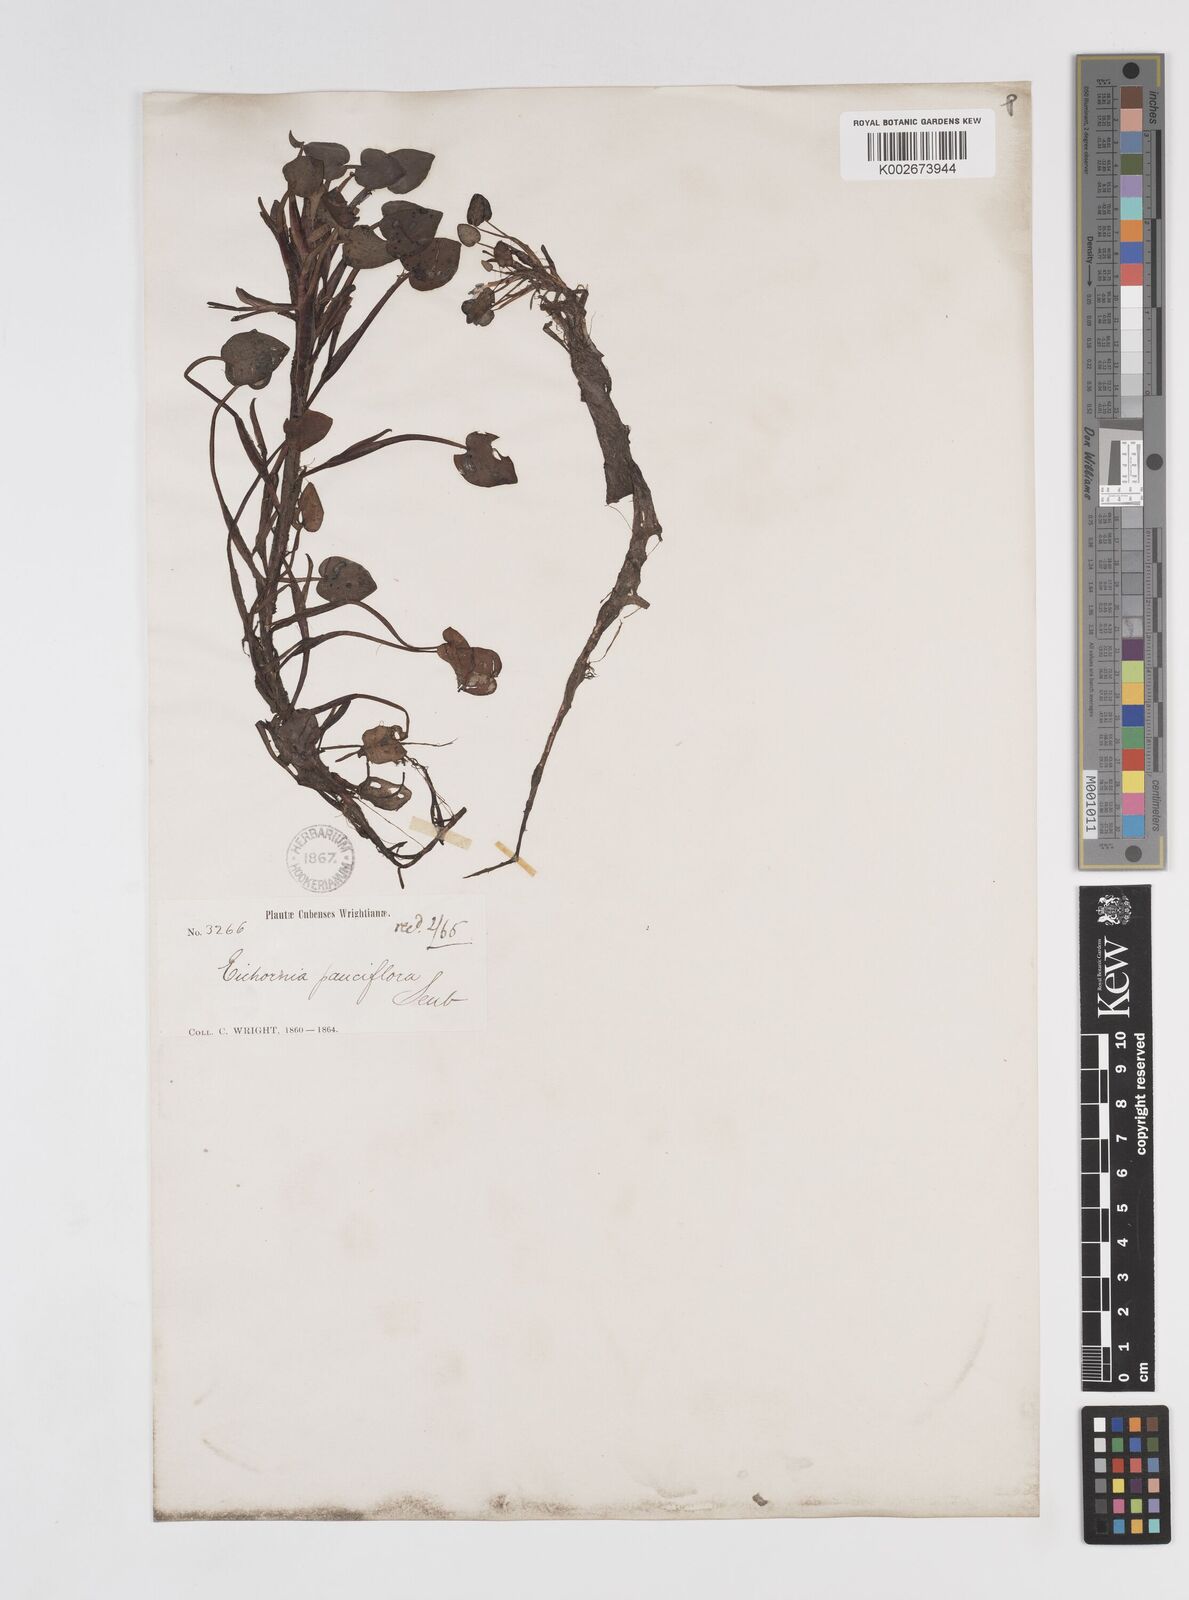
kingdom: Plantae
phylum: Tracheophyta
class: Liliopsida
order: Commelinales
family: Pontederiaceae
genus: Pontederia
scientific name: Pontederia diversifolia
